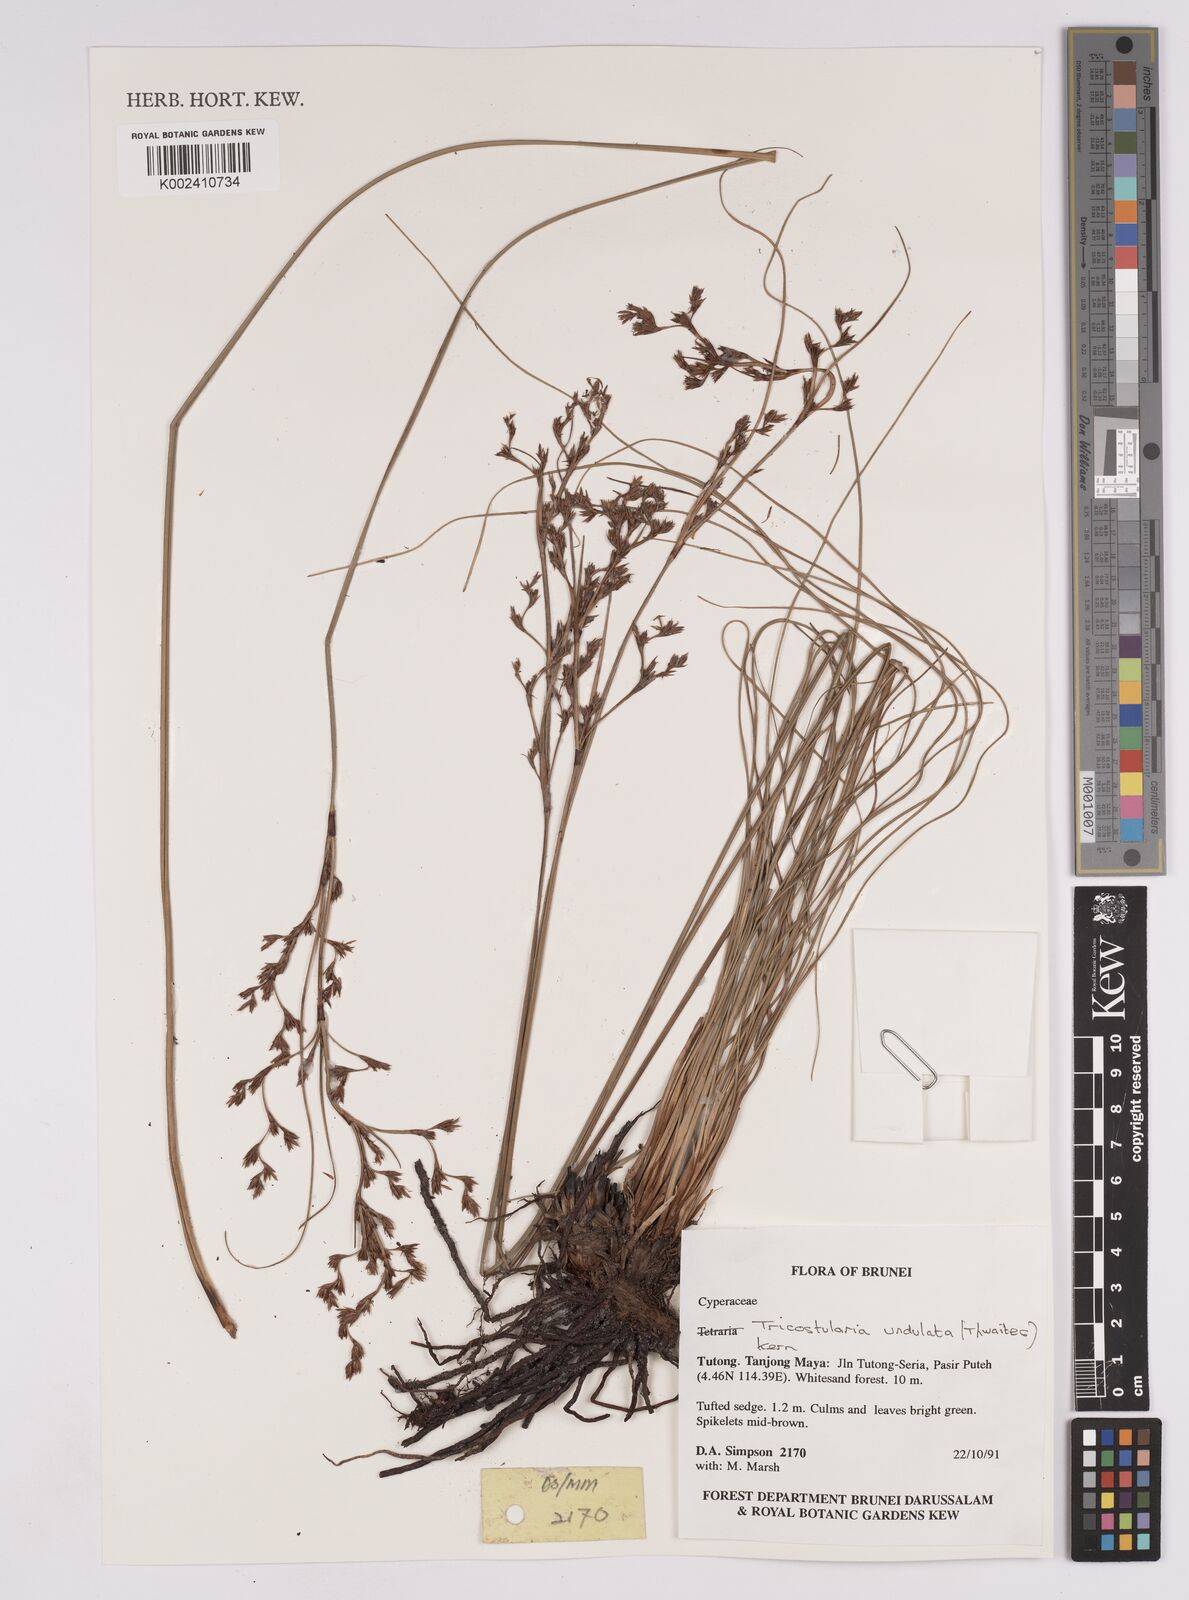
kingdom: Plantae
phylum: Tracheophyta
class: Liliopsida
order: Poales
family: Cyperaceae
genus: Anthelepis
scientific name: Anthelepis undulata
